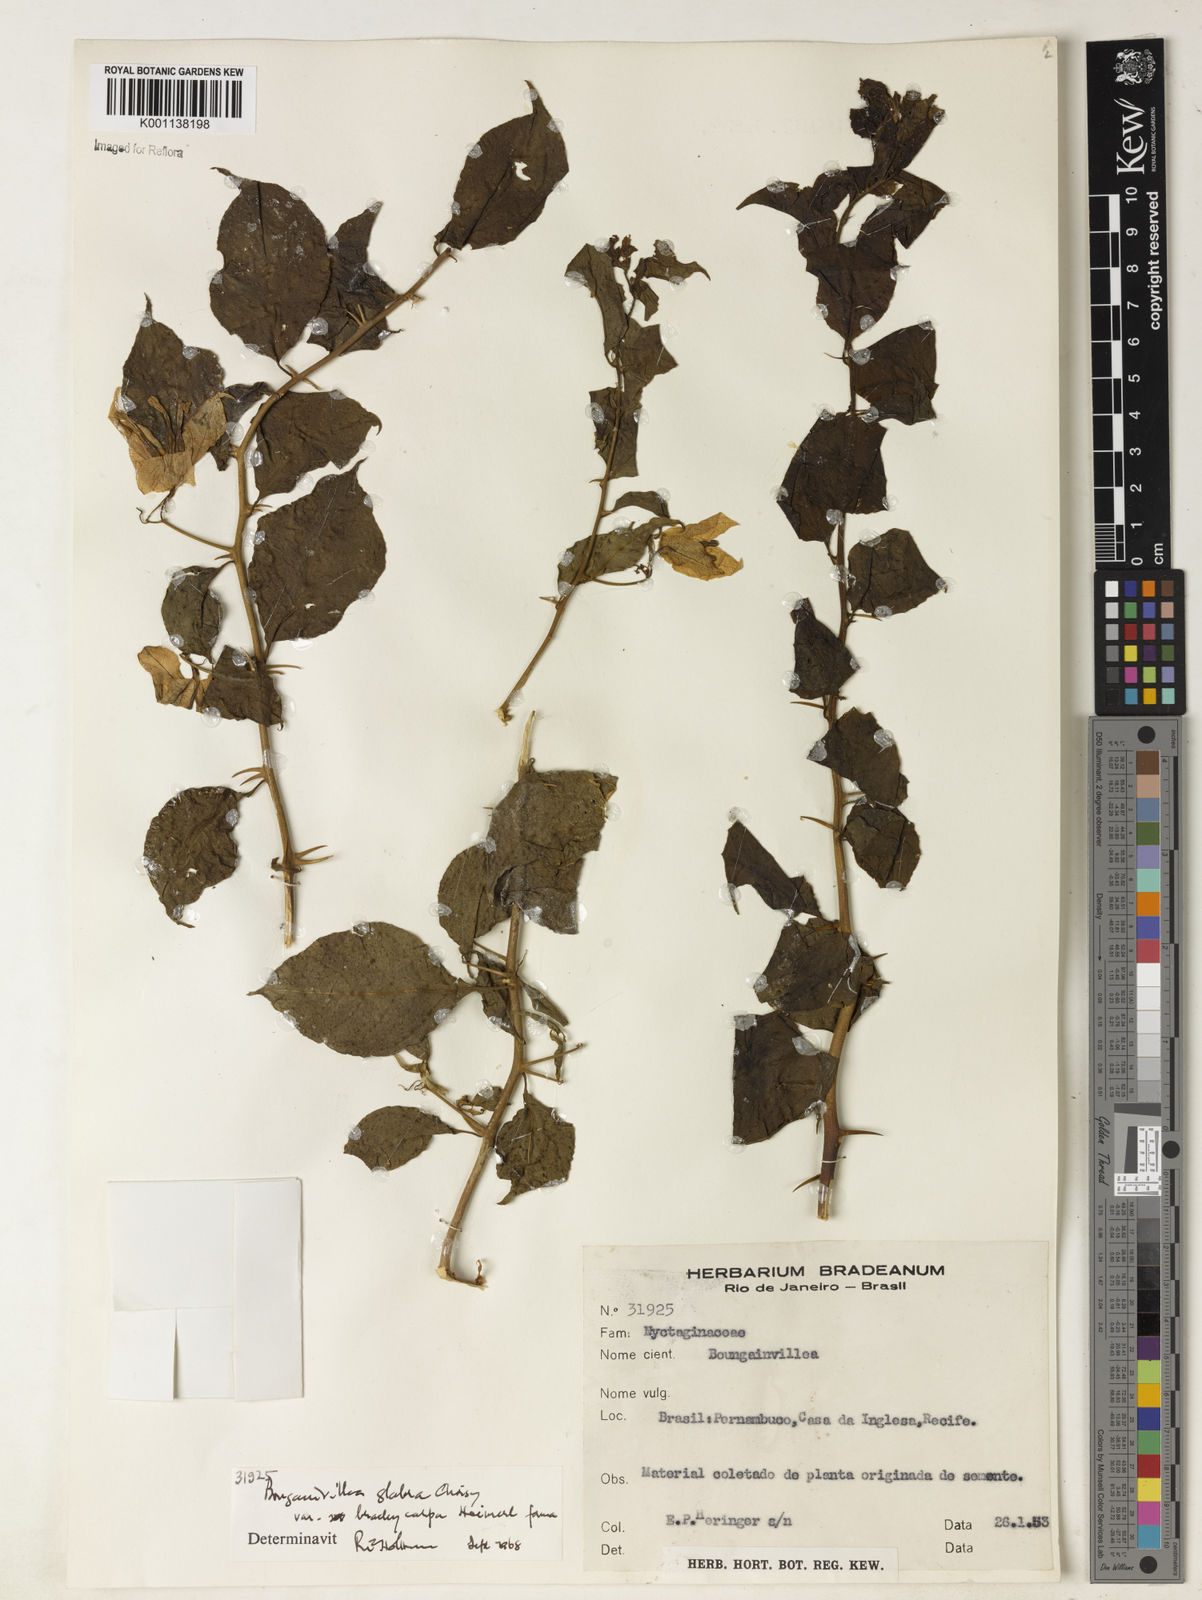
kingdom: Plantae
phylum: Tracheophyta
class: Magnoliopsida
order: Caryophyllales
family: Nyctaginaceae
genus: Bougainvillea
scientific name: Bougainvillea glabra
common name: Paperflower
